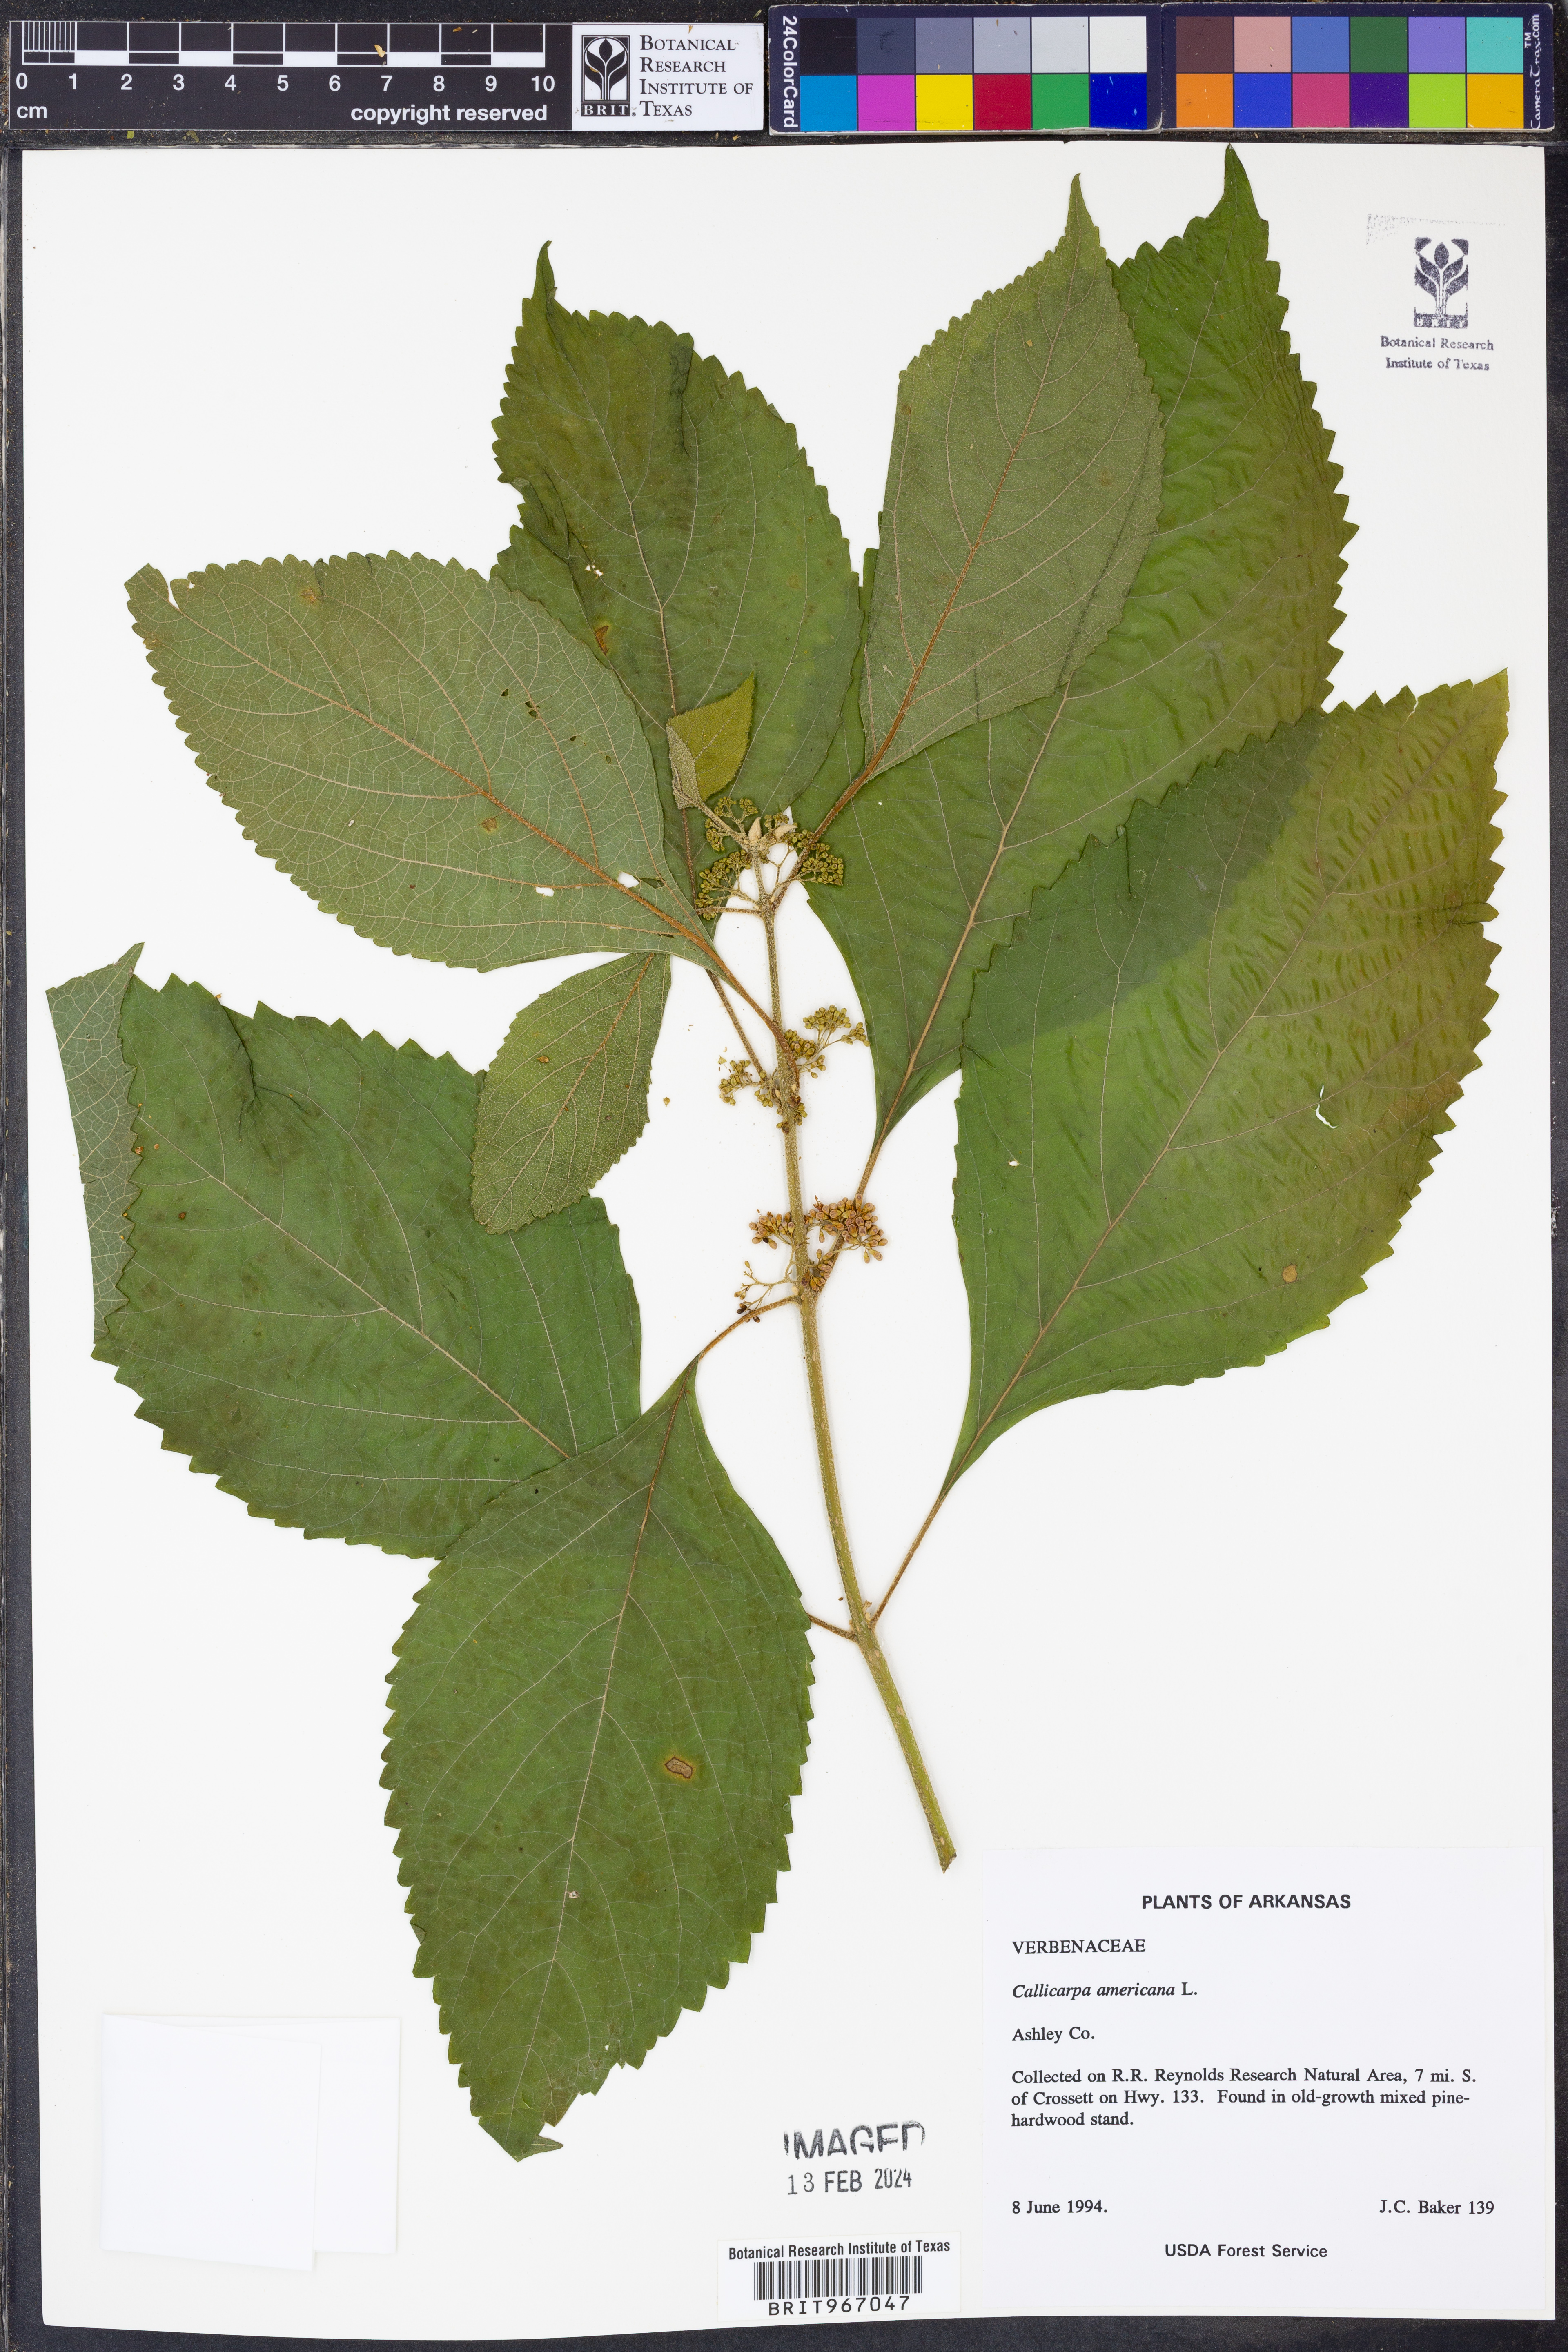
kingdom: Plantae
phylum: Tracheophyta
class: Magnoliopsida
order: Lamiales
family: Lamiaceae
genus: Callicarpa
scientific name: Callicarpa americana
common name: American beautyberry
